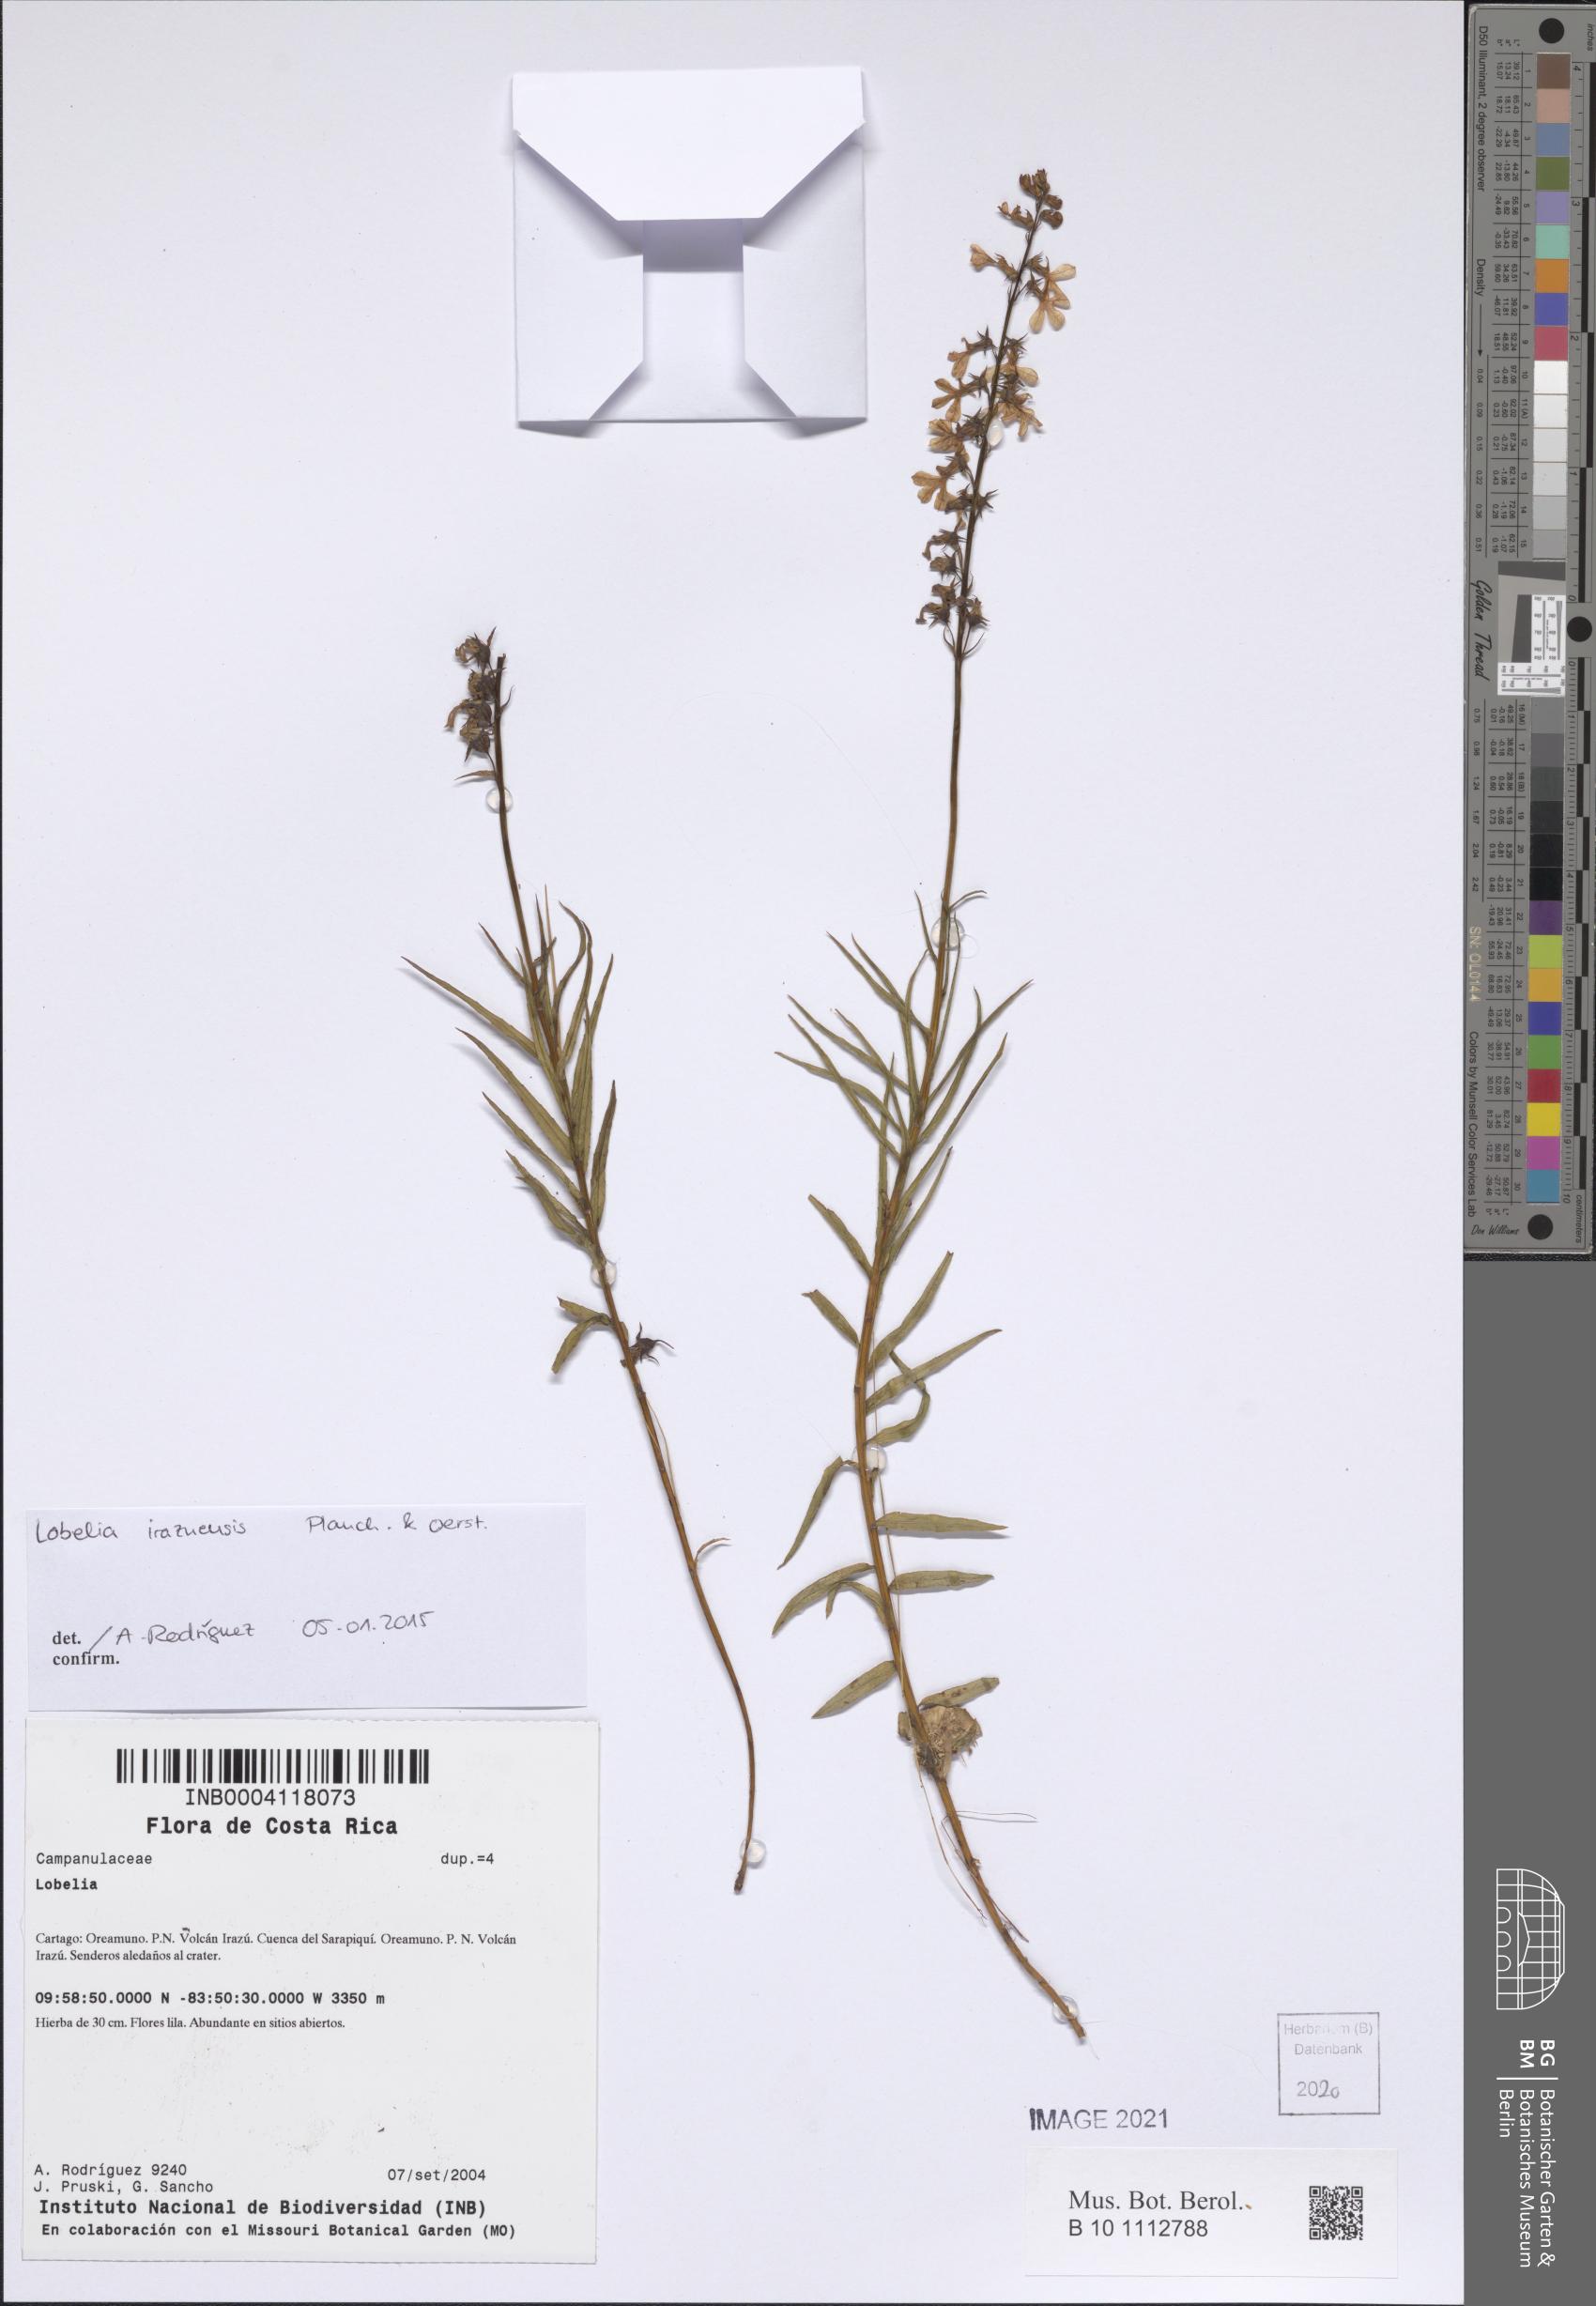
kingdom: Plantae
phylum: Tracheophyta
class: Magnoliopsida
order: Asterales
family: Campanulaceae
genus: Lobelia
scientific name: Lobelia irasuensis
